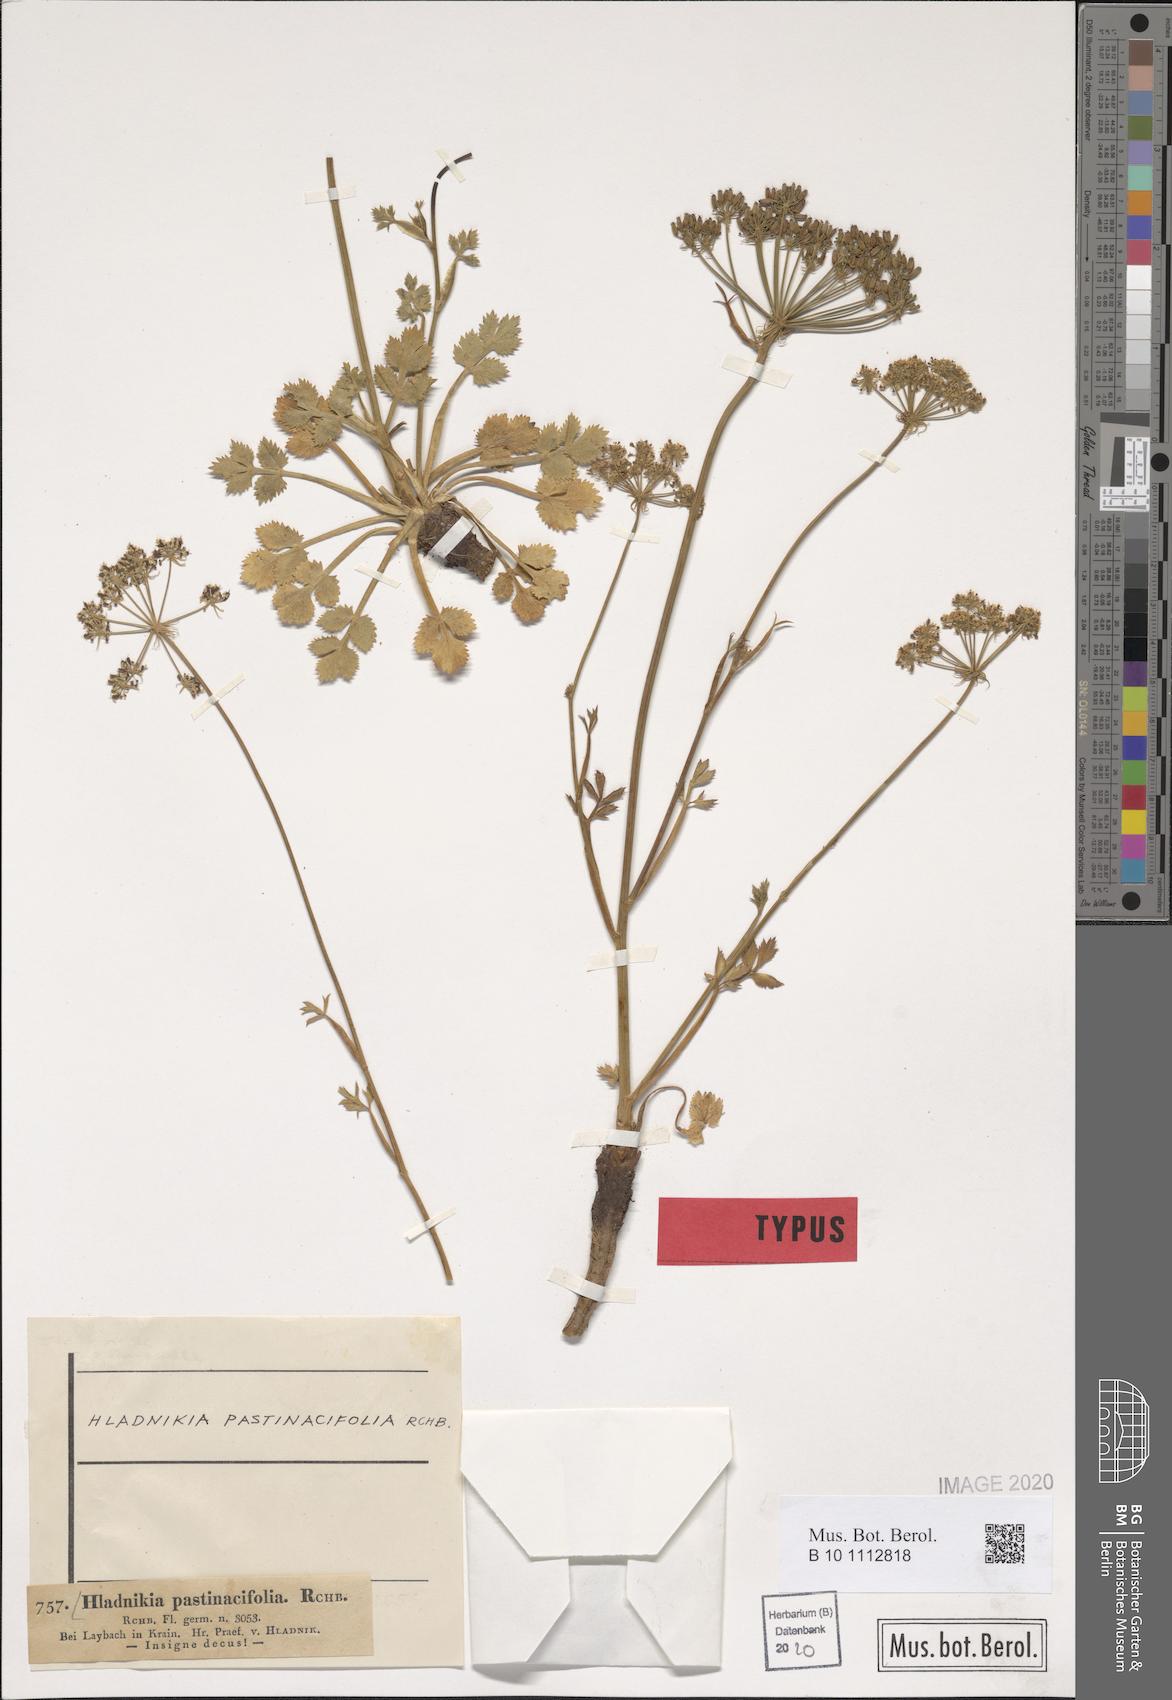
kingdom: Plantae
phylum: Tracheophyta
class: Magnoliopsida
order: Apiales
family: Apiaceae
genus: Hladnikia
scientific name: Hladnikia pastinacifolia
